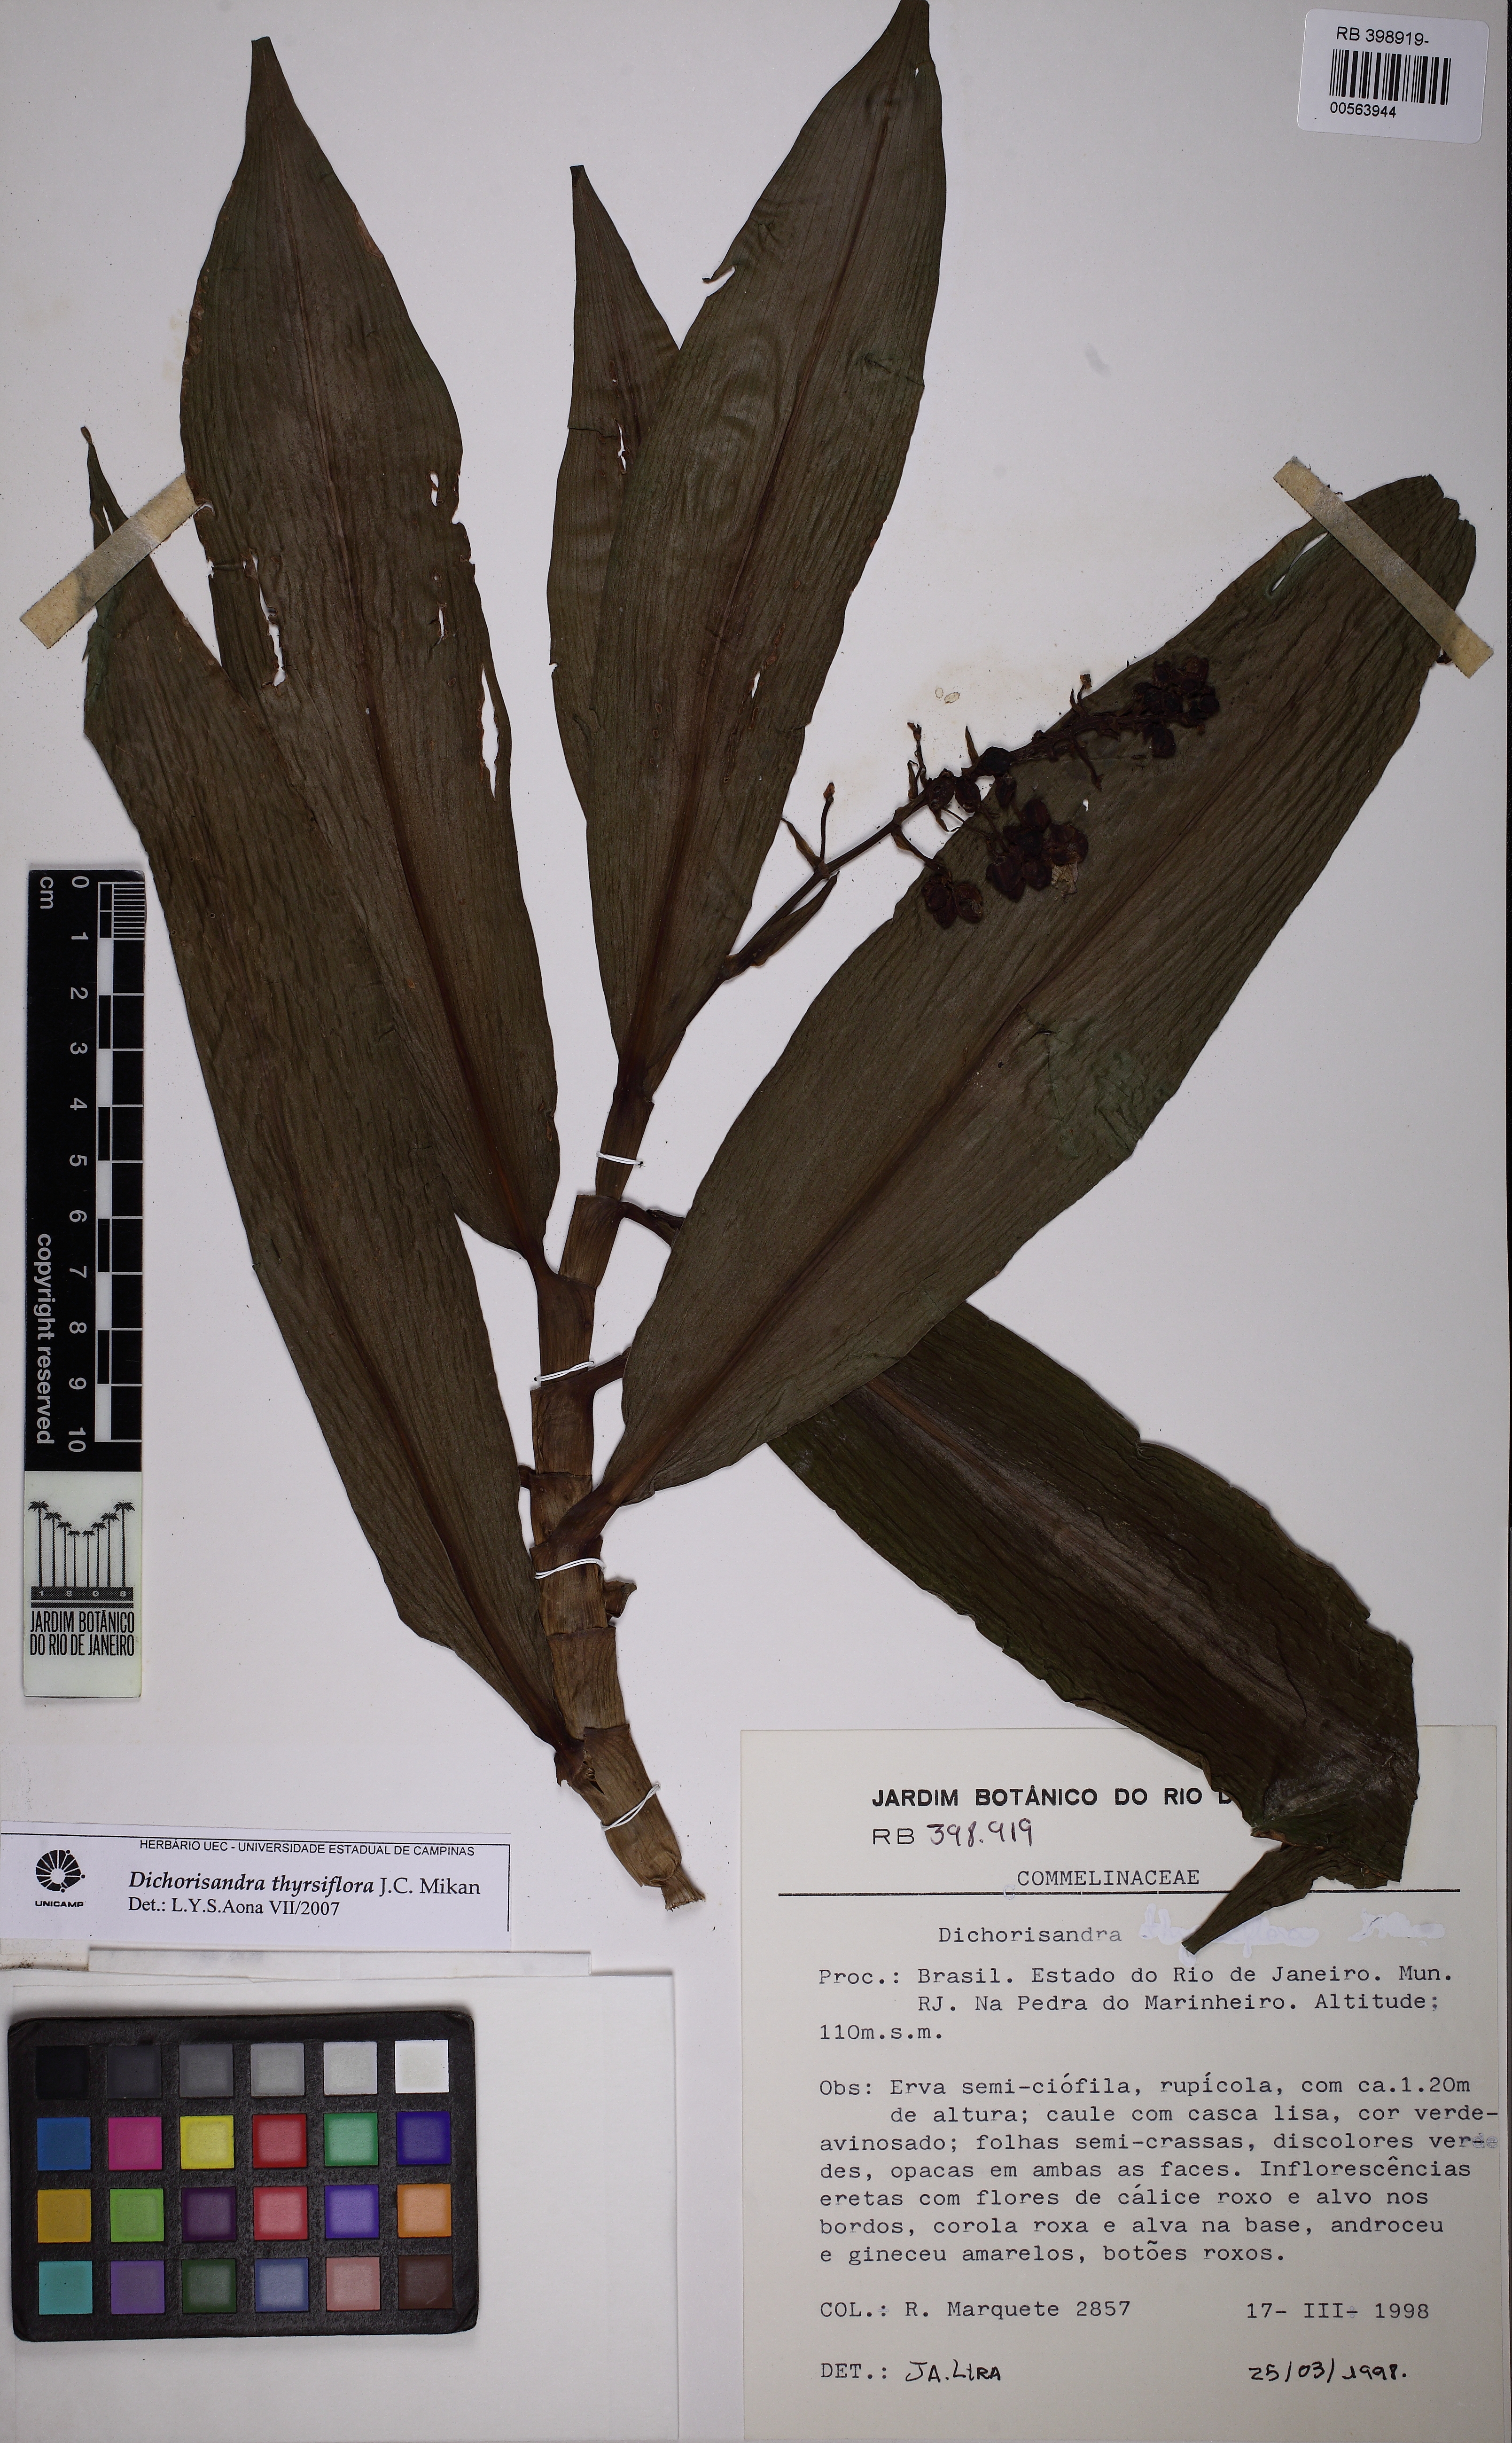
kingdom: Plantae
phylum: Tracheophyta
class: Liliopsida
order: Commelinales
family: Commelinaceae
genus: Dichorisandra
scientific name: Dichorisandra thyrsiflora
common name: Blue-ginger
